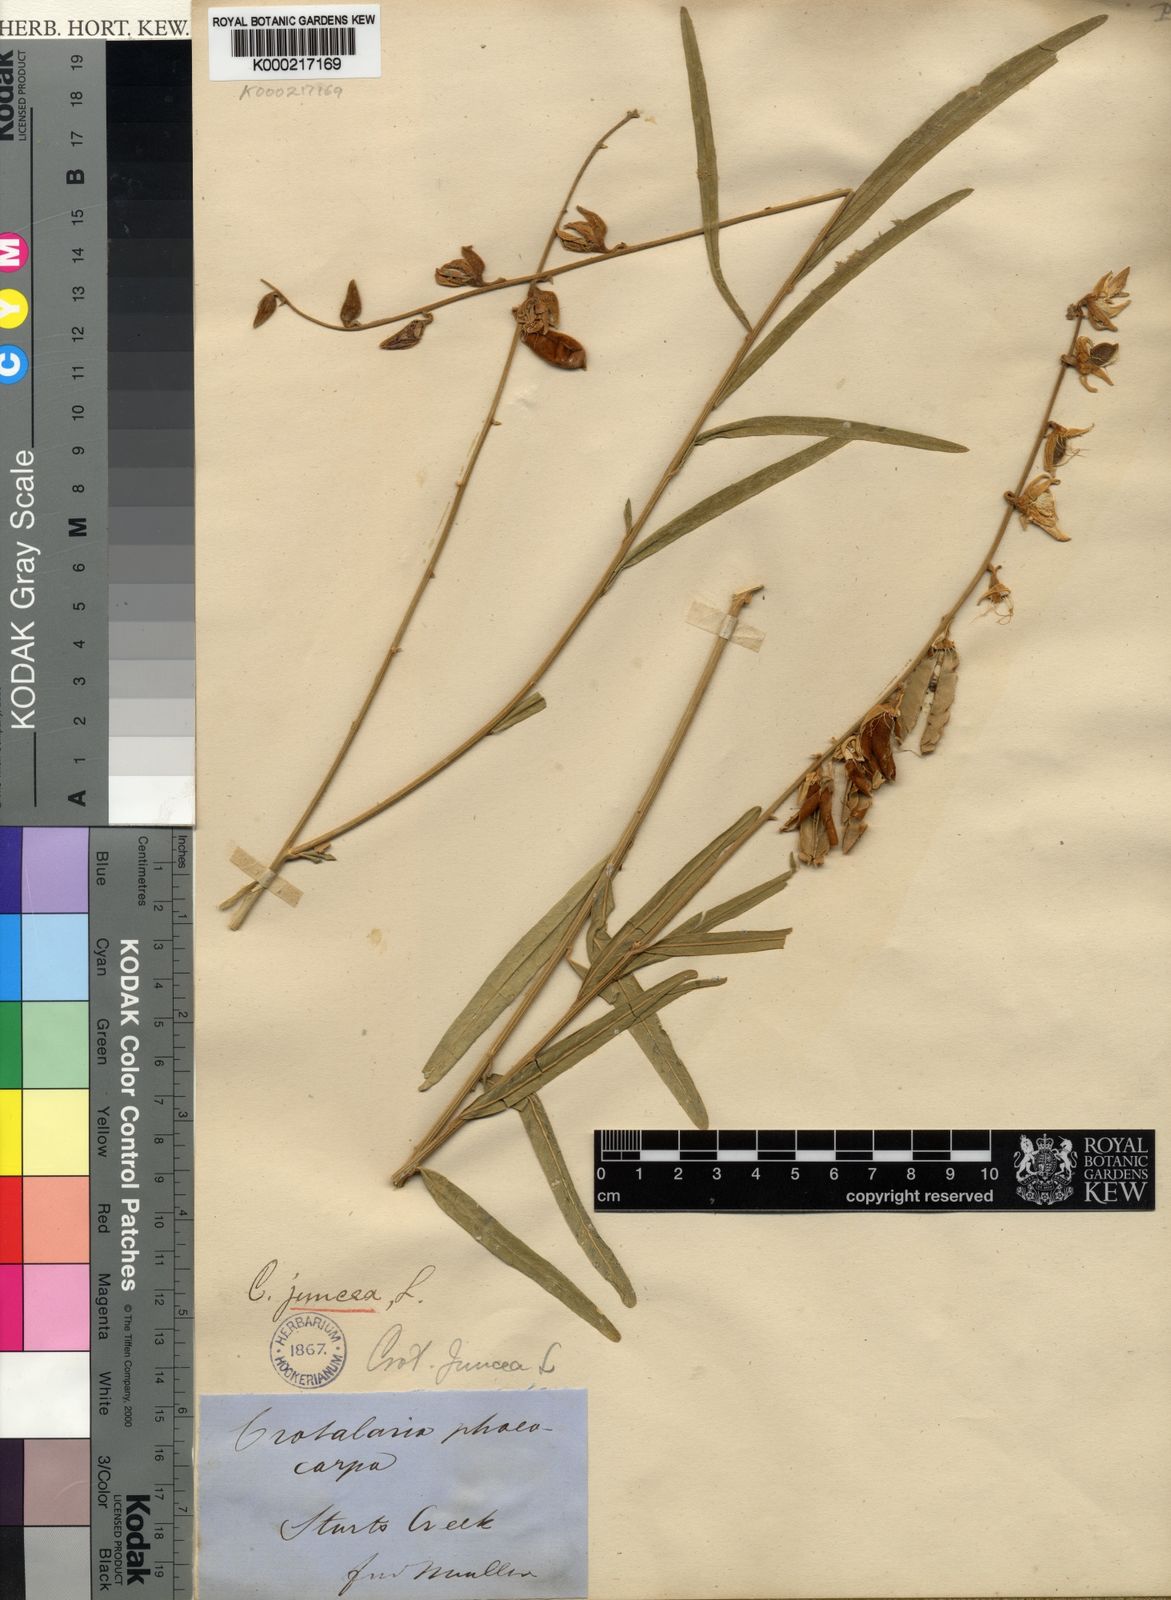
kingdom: Plantae
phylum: Tracheophyta
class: Magnoliopsida
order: Fabales
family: Fabaceae
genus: Crotalaria
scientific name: Crotalaria juncea
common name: Sunn hemp
